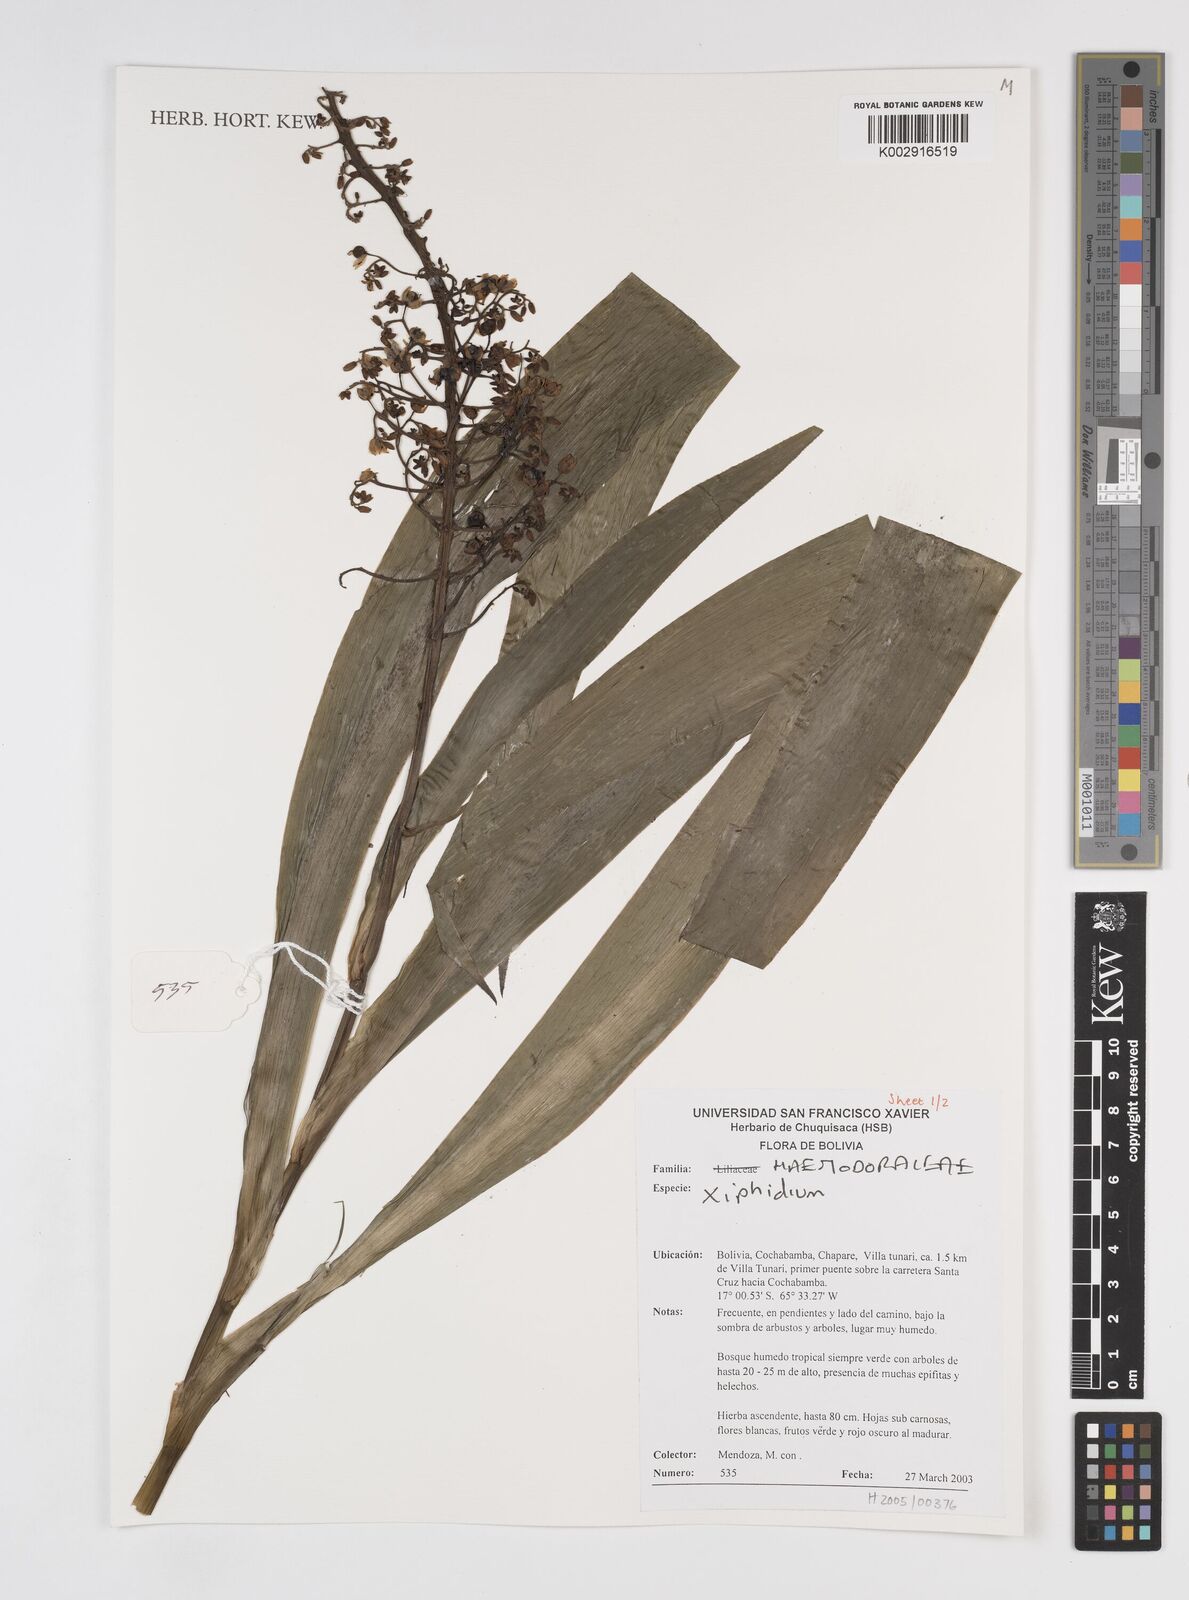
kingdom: Plantae
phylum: Tracheophyta
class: Liliopsida
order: Commelinales
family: Haemodoraceae
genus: Xiphidium
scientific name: Xiphidium caeruleum
